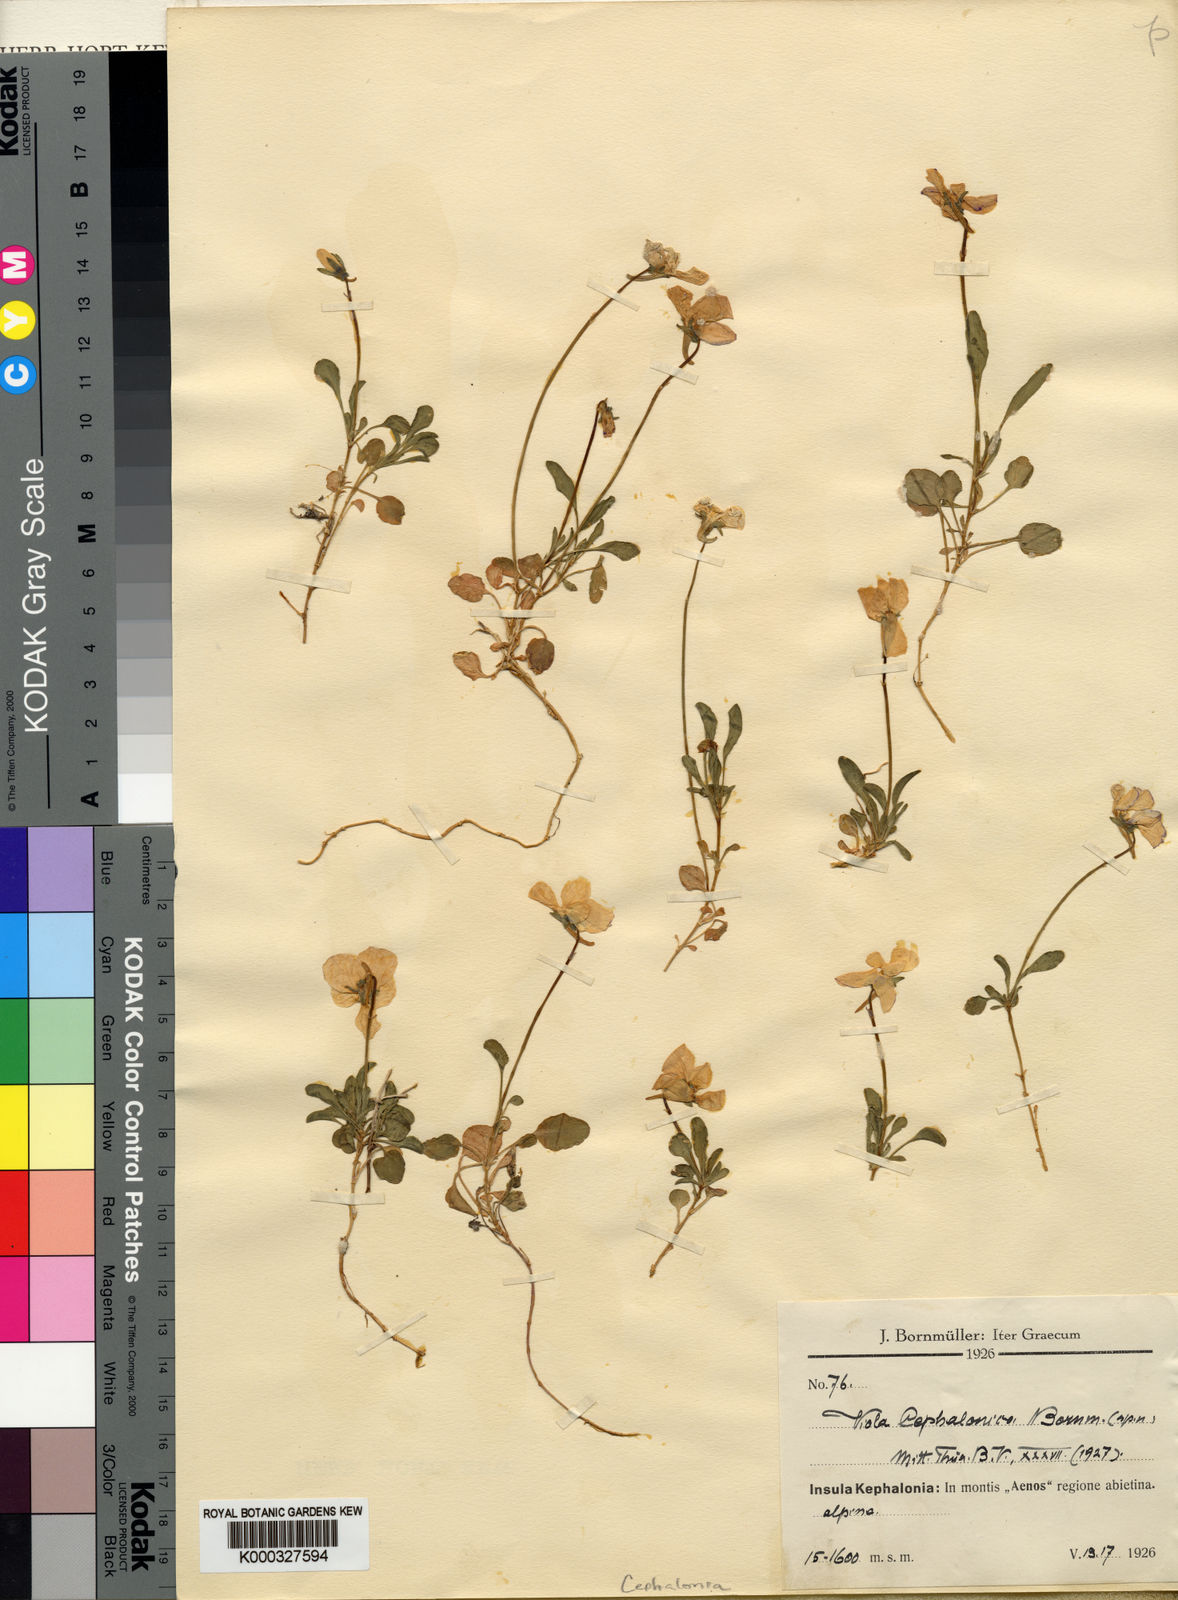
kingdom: Plantae
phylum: Tracheophyta
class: Magnoliopsida
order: Malpighiales
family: Violaceae
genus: Viola
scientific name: Viola
